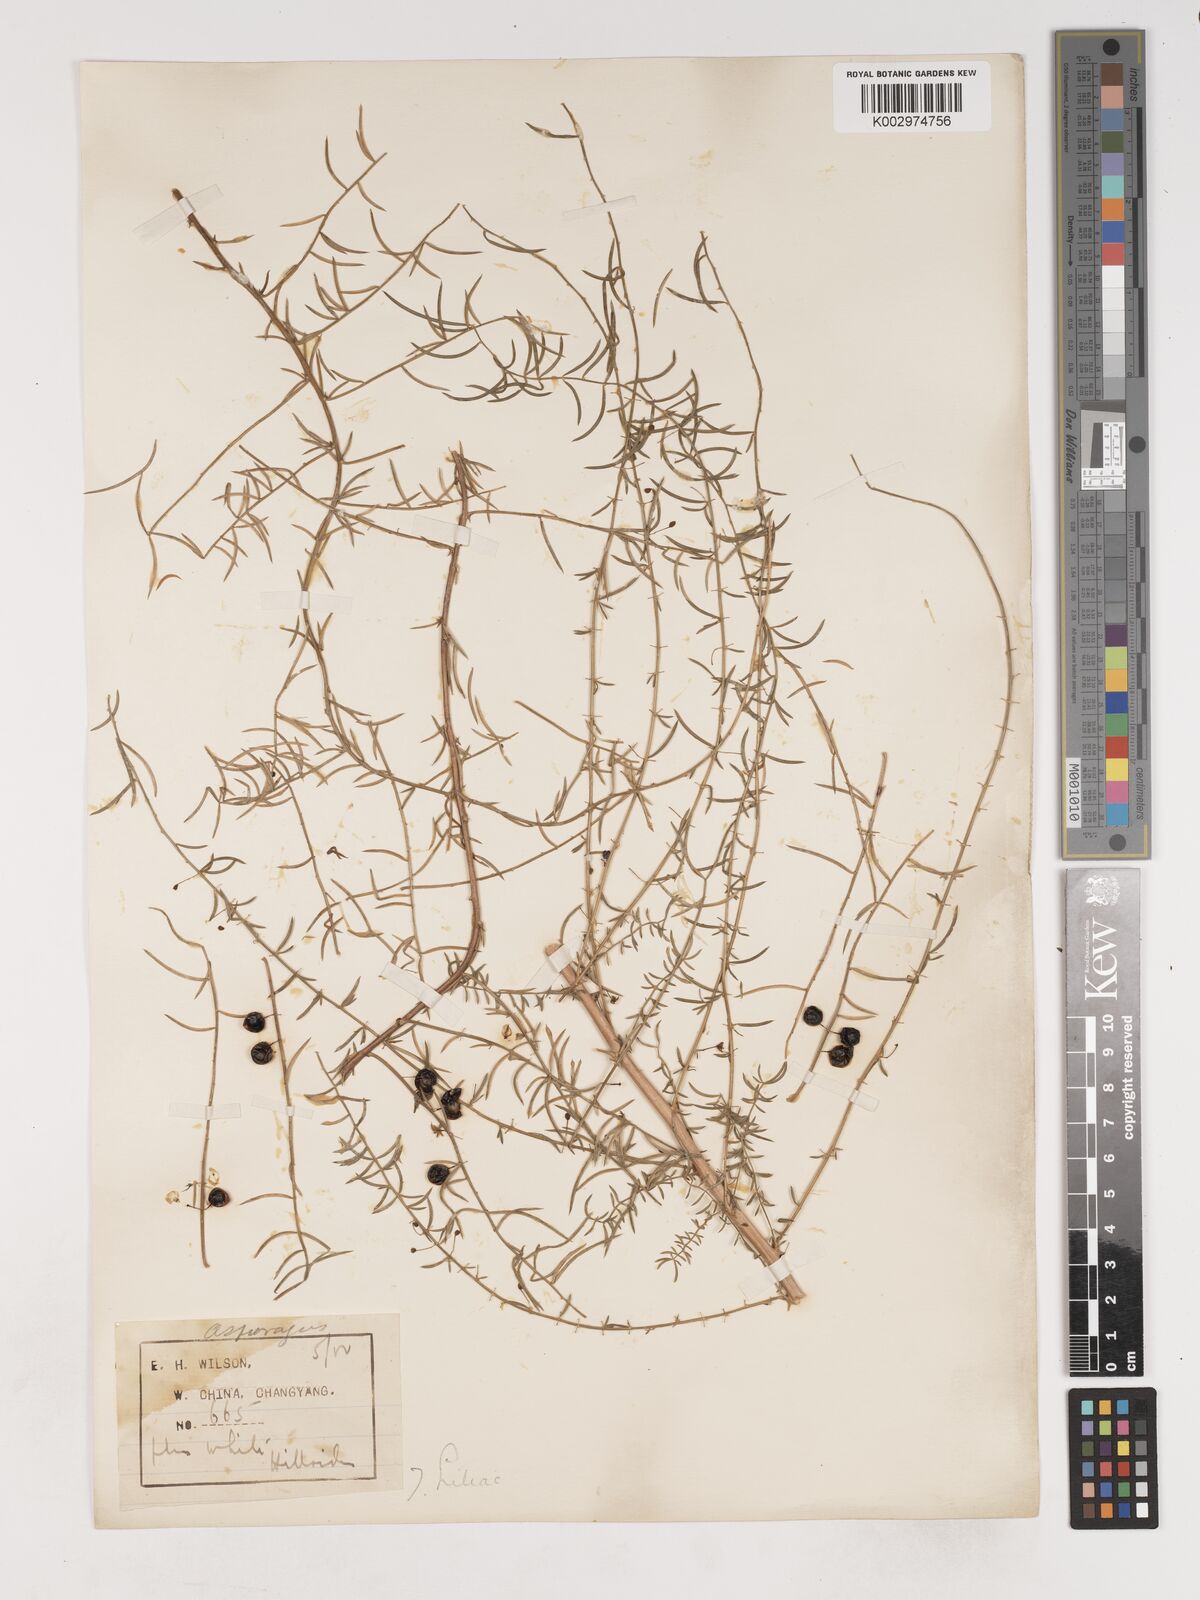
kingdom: Plantae
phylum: Tracheophyta
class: Liliopsida
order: Asparagales
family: Asparagaceae
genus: Asparagus
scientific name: Asparagus
